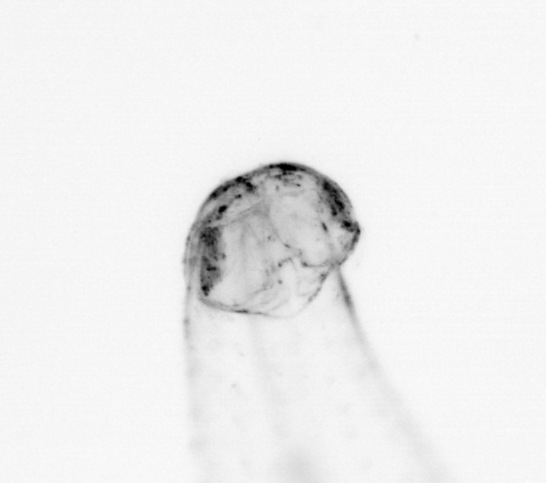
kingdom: Animalia
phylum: Chaetognatha
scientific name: Chaetognatha
